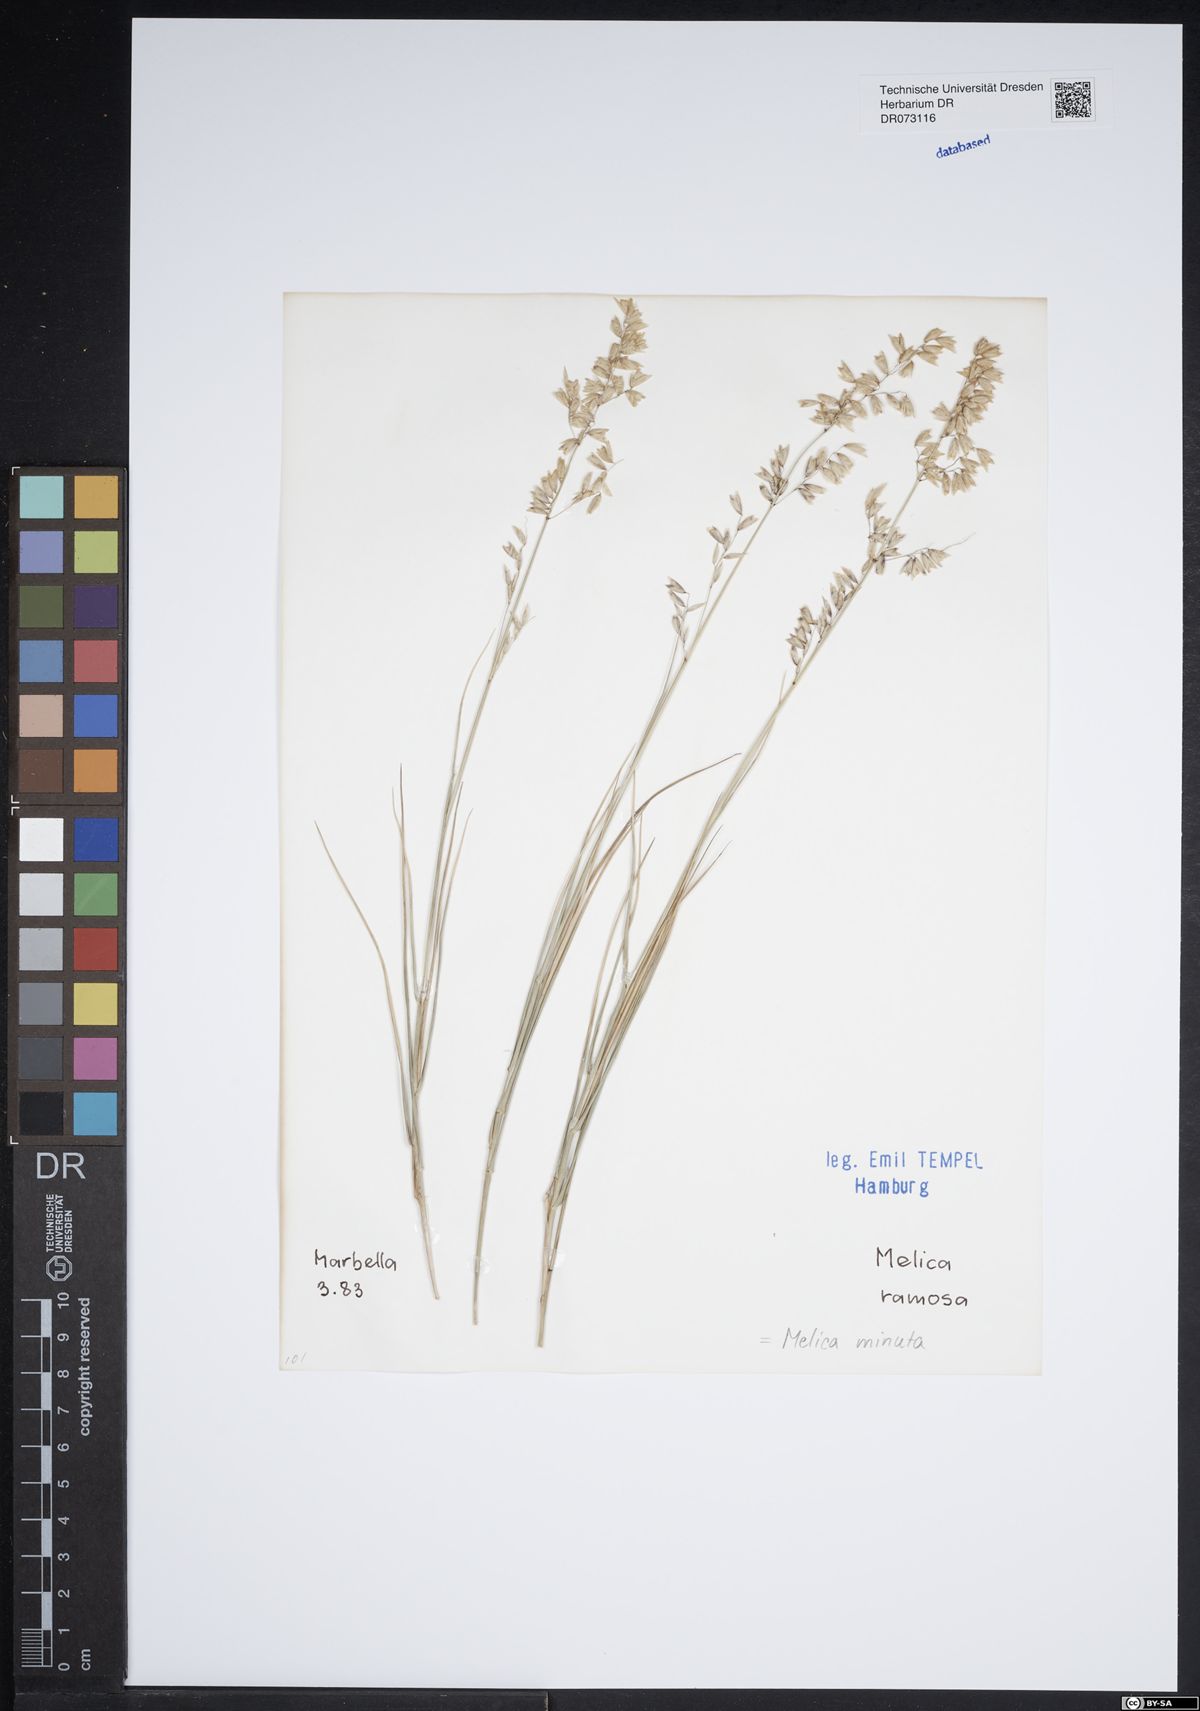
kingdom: Plantae
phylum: Tracheophyta
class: Liliopsida
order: Poales
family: Poaceae
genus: Melica
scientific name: Melica minuta
